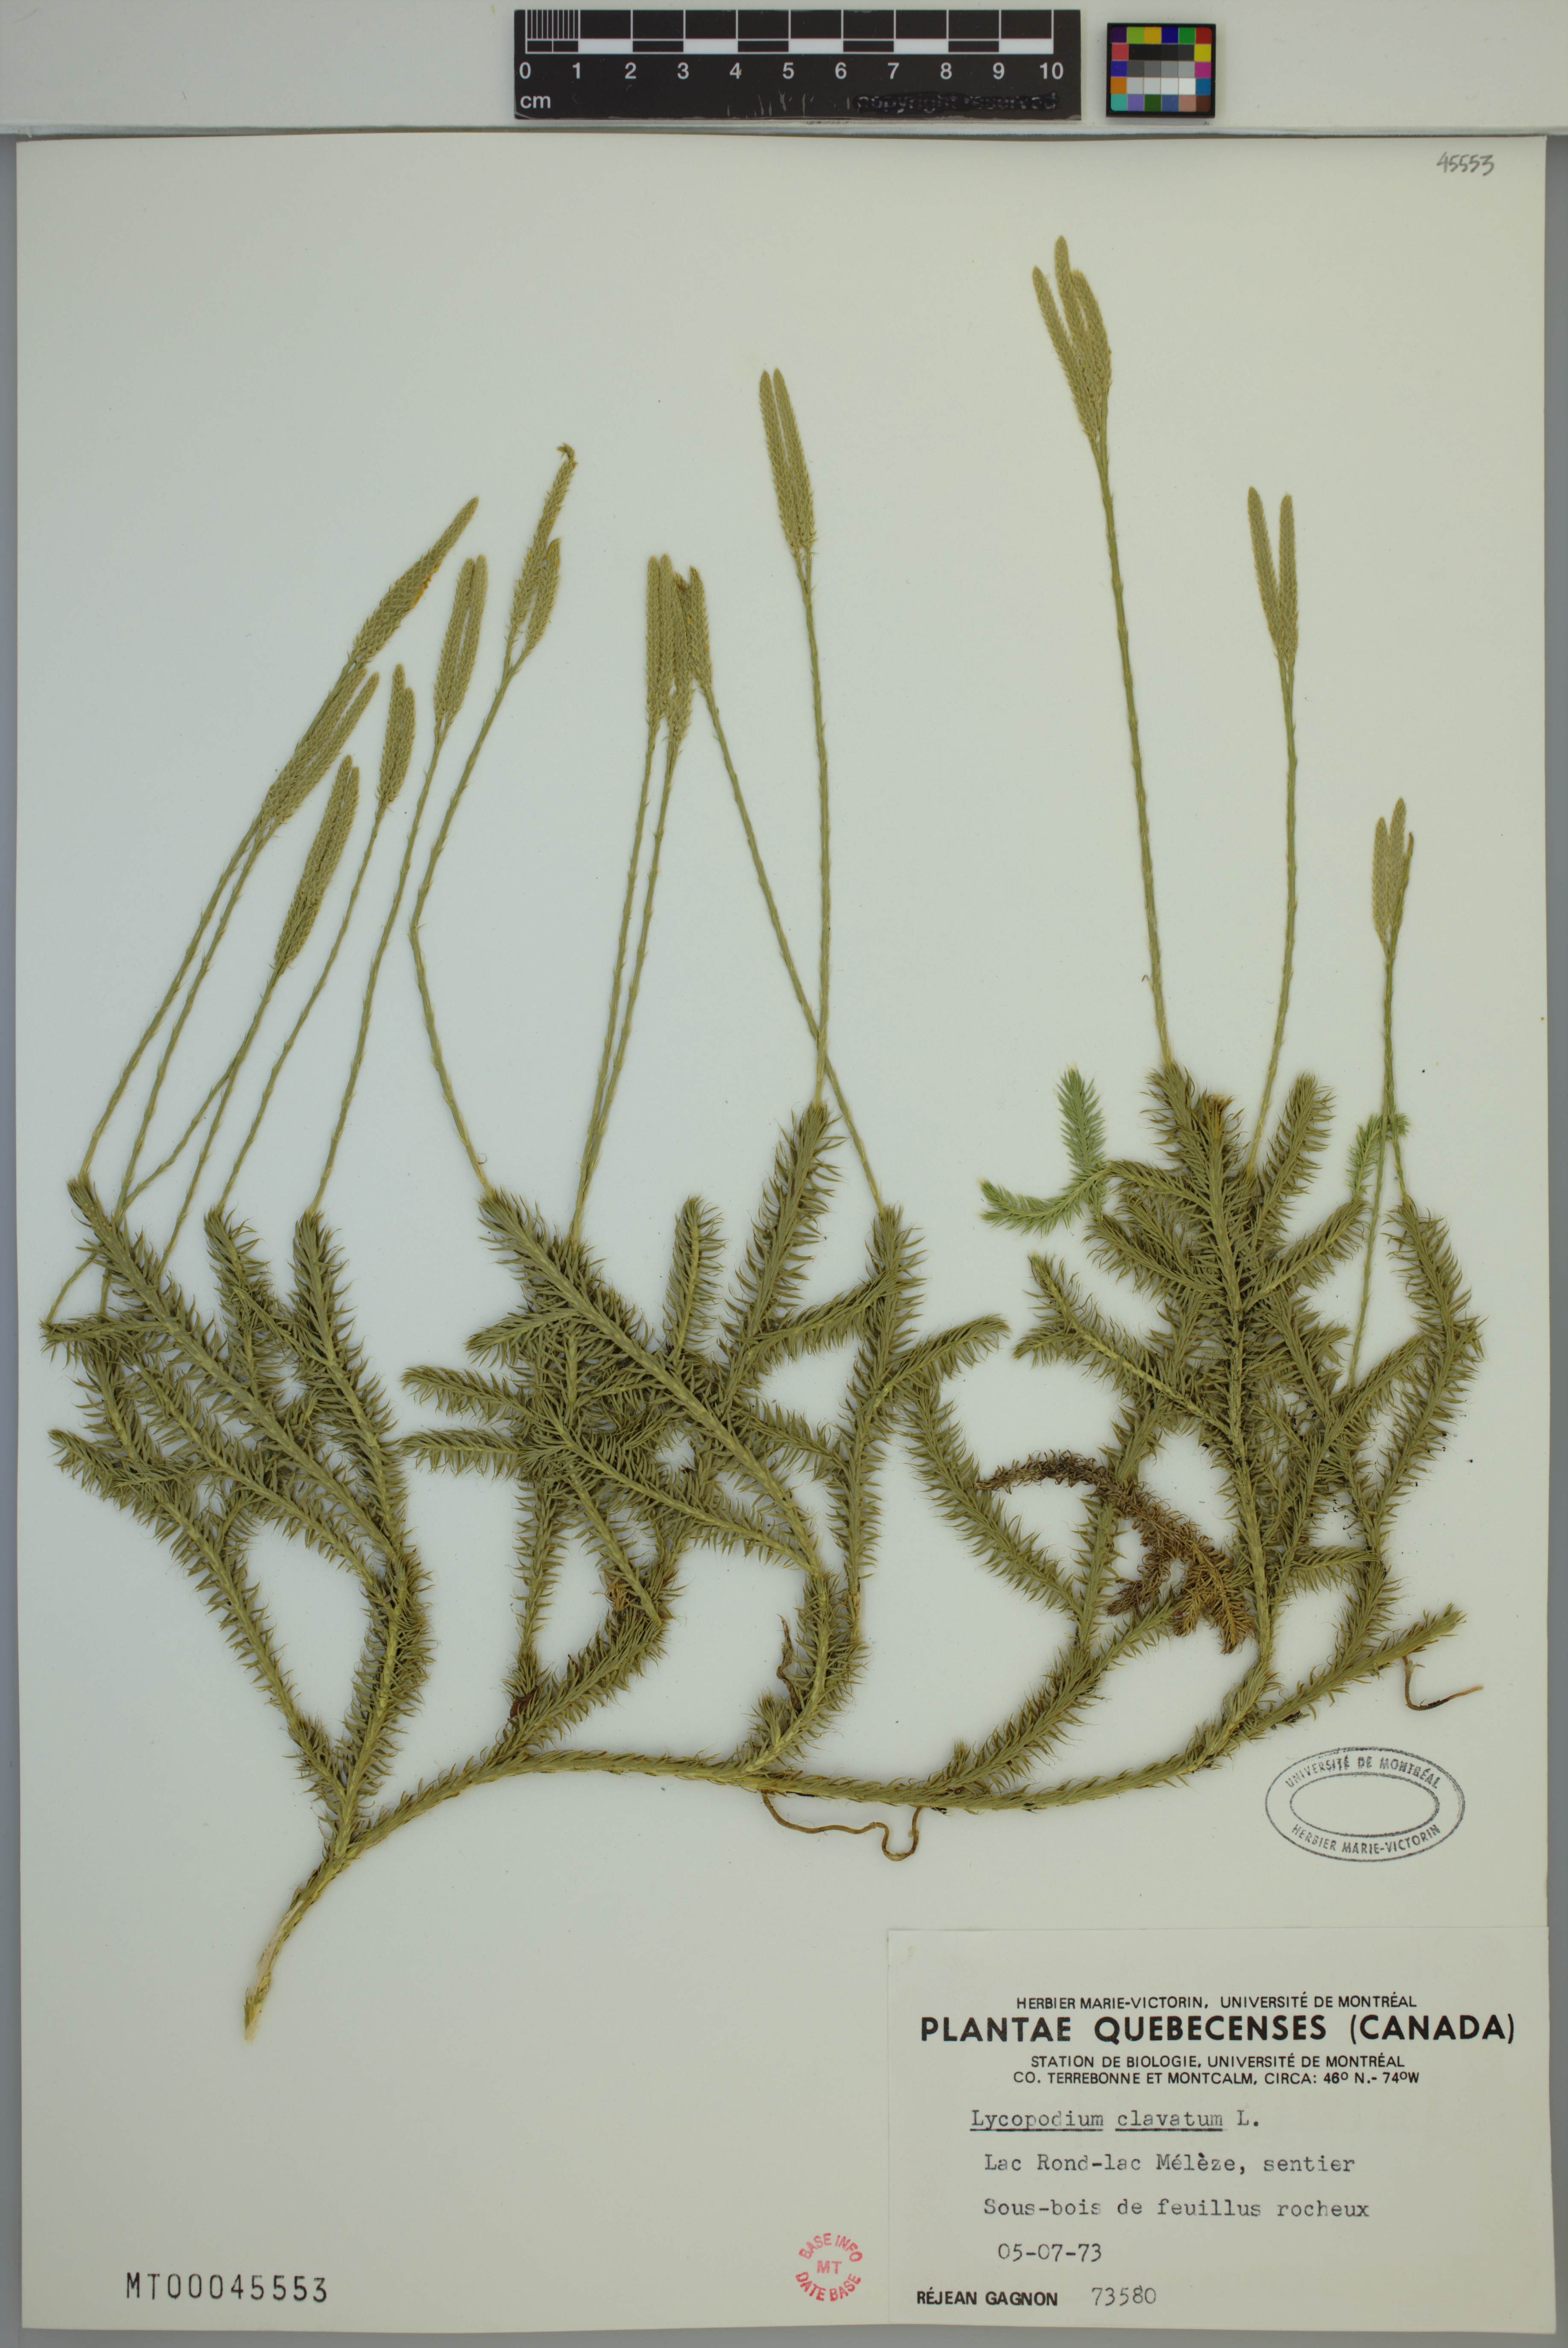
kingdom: Plantae
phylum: Tracheophyta
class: Lycopodiopsida
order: Lycopodiales
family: Lycopodiaceae
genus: Lycopodium
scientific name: Lycopodium clavatum
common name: Stag's-horn clubmoss
